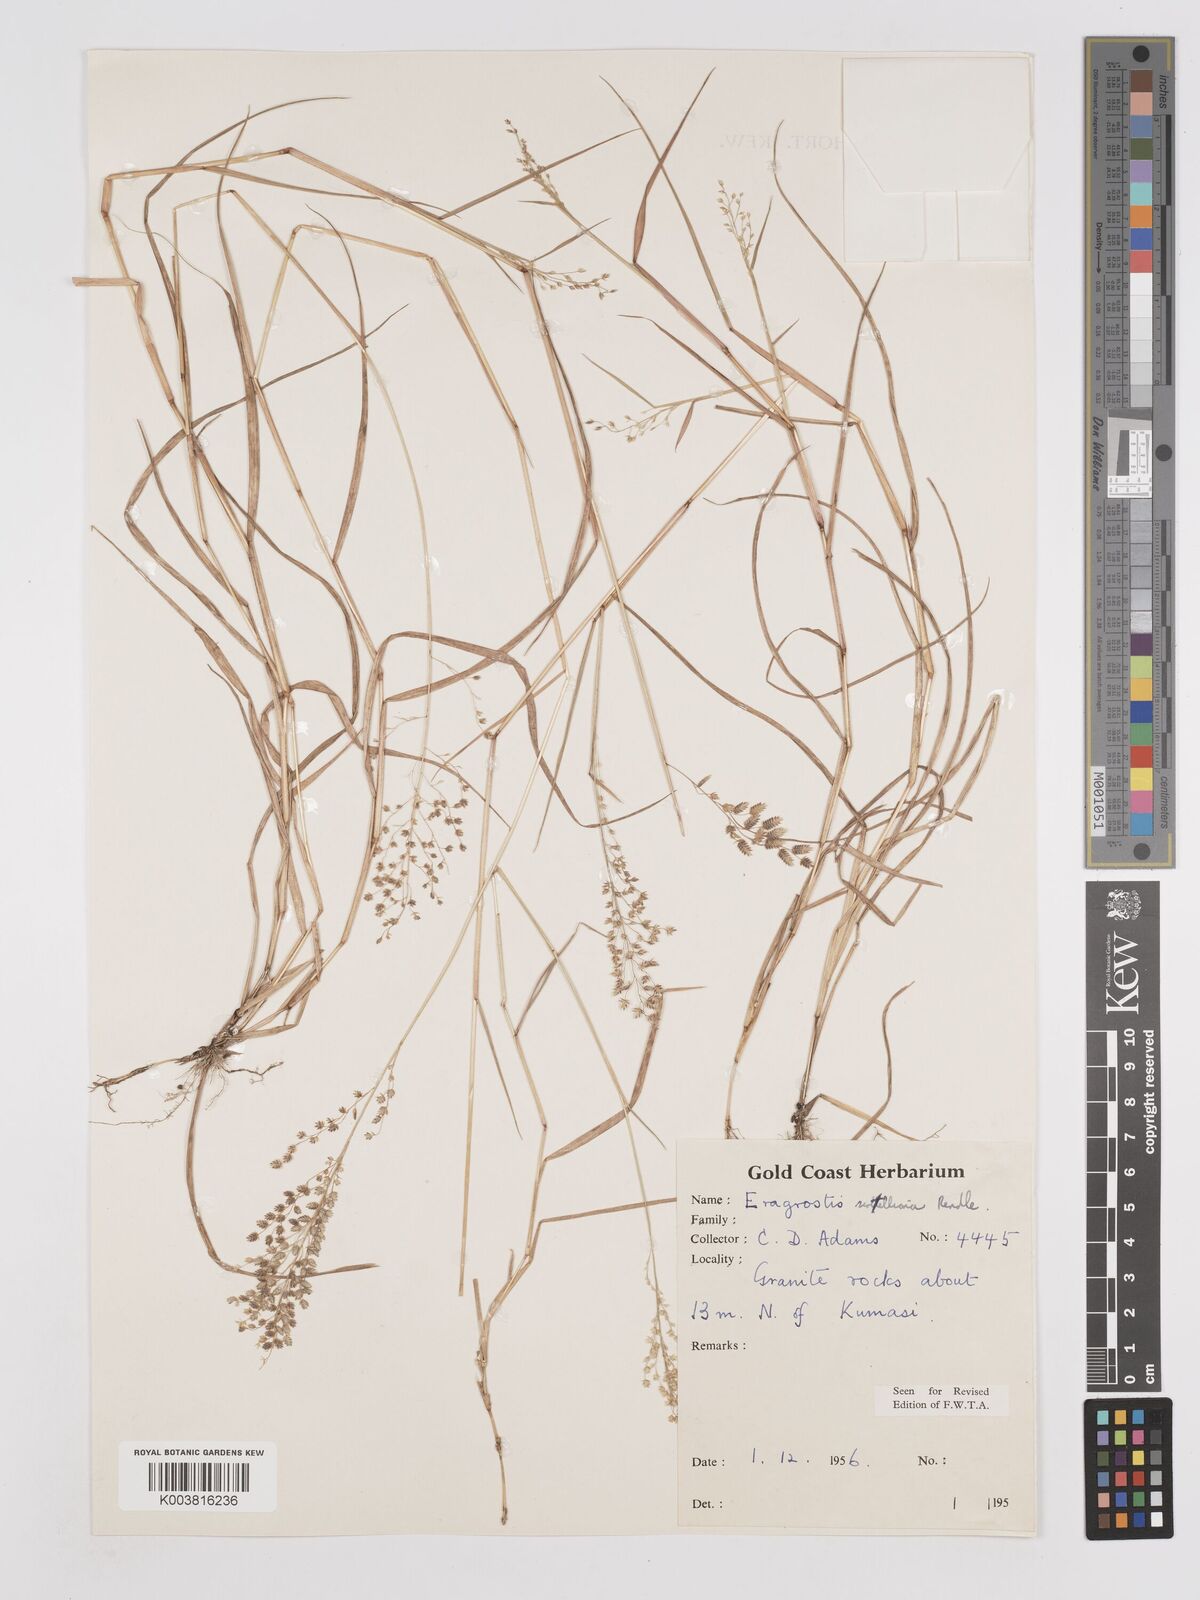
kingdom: Plantae
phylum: Tracheophyta
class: Liliopsida
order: Poales
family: Poaceae
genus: Eragrostis
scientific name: Eragrostis scotelliana
